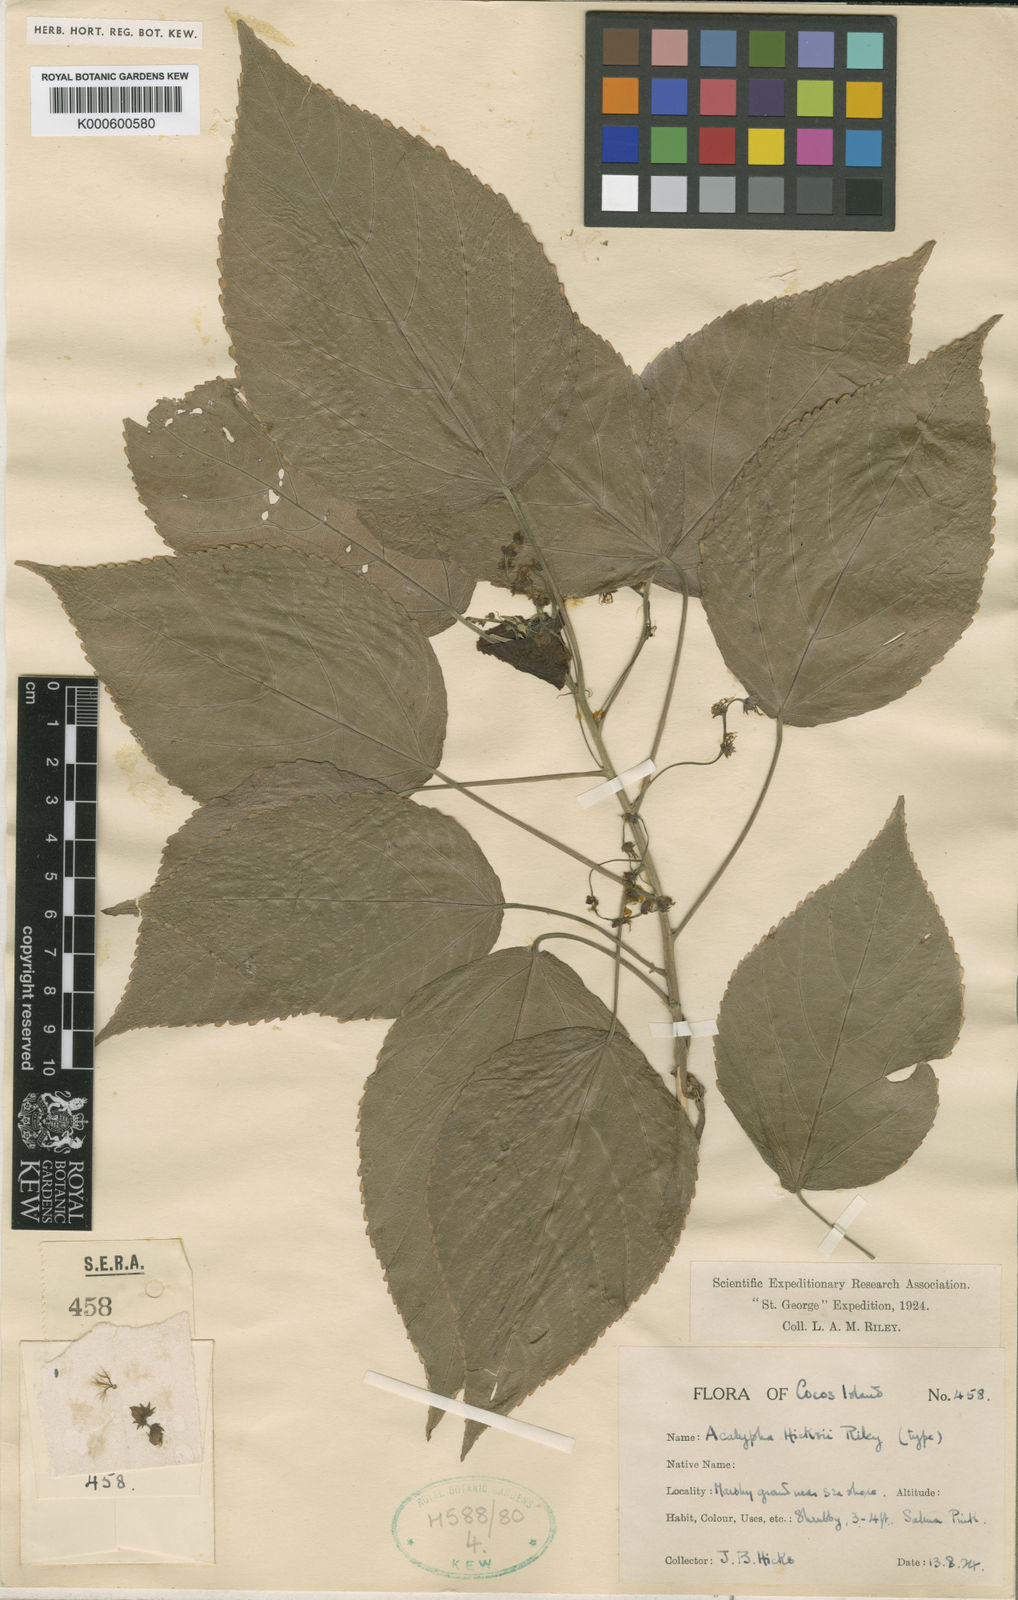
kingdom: Plantae
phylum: Tracheophyta
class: Magnoliopsida
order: Malpighiales
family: Euphorbiaceae
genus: Acalypha
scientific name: Acalypha macrostachya
